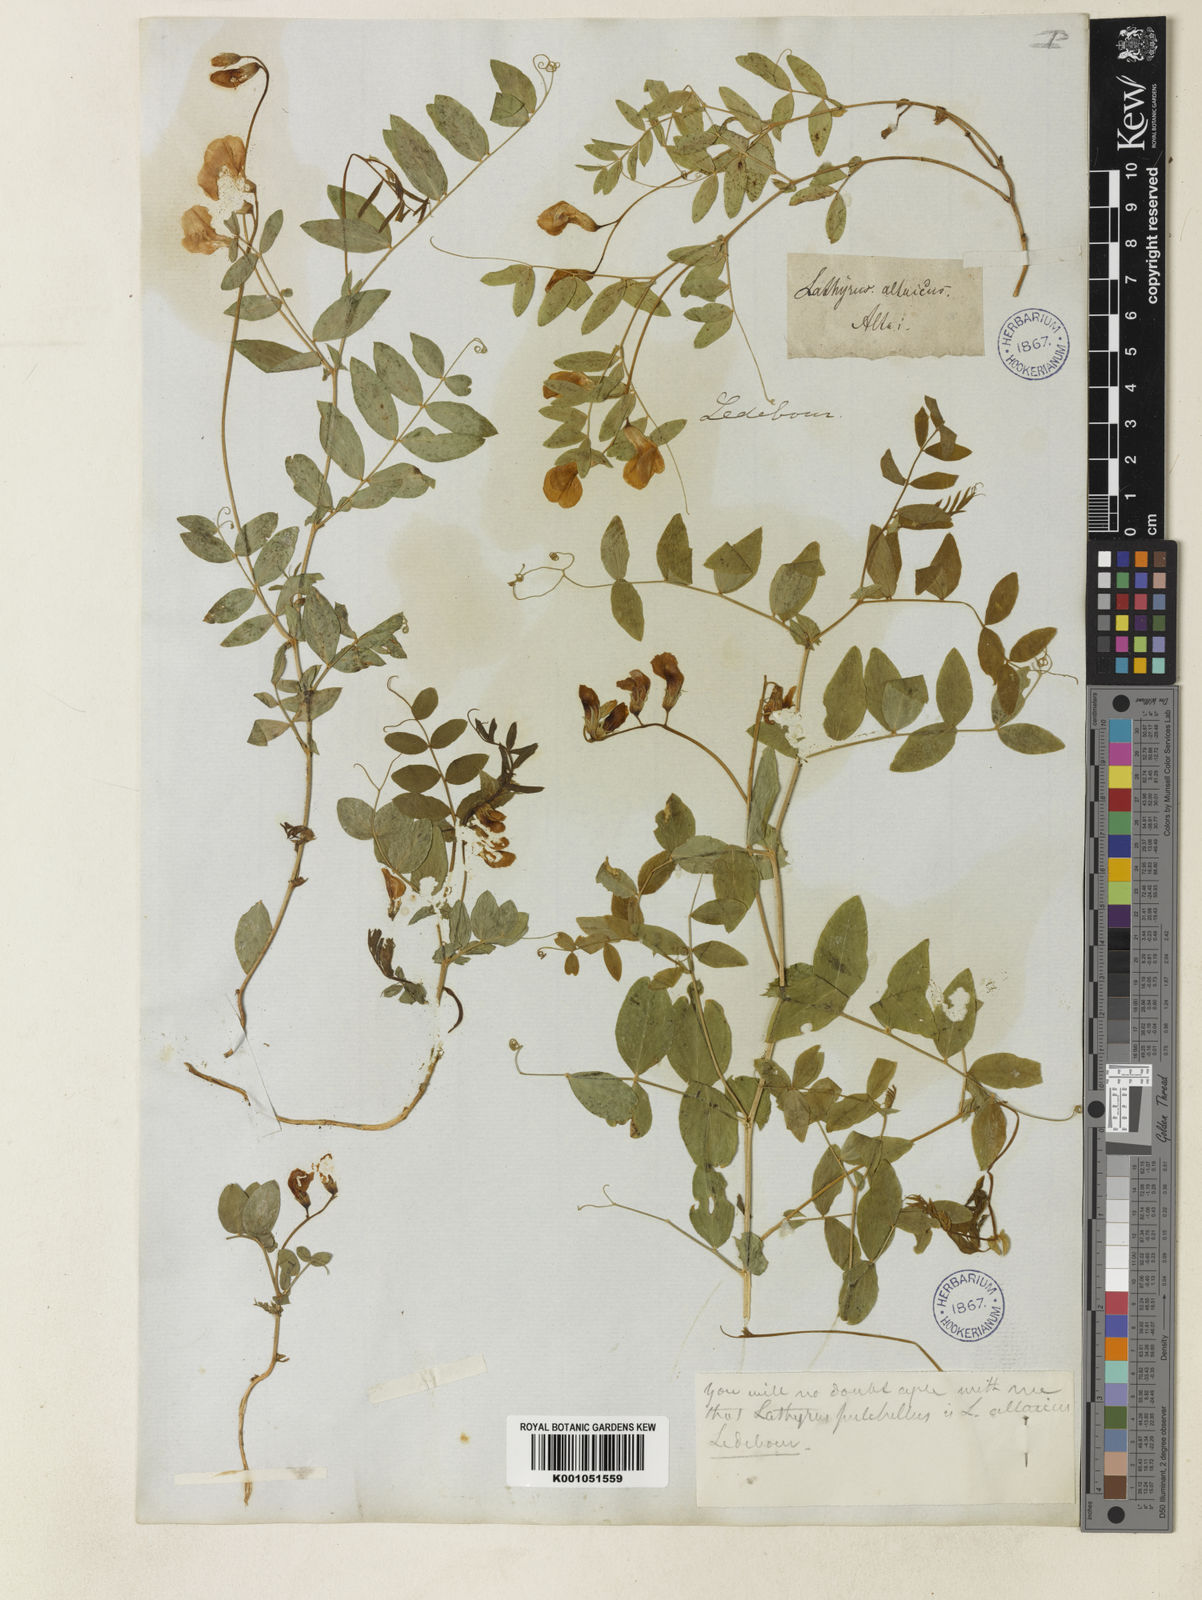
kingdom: Plantae
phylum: Tracheophyta
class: Magnoliopsida
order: Fabales
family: Fabaceae
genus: Lathyrus
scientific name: Lathyrus humilis
